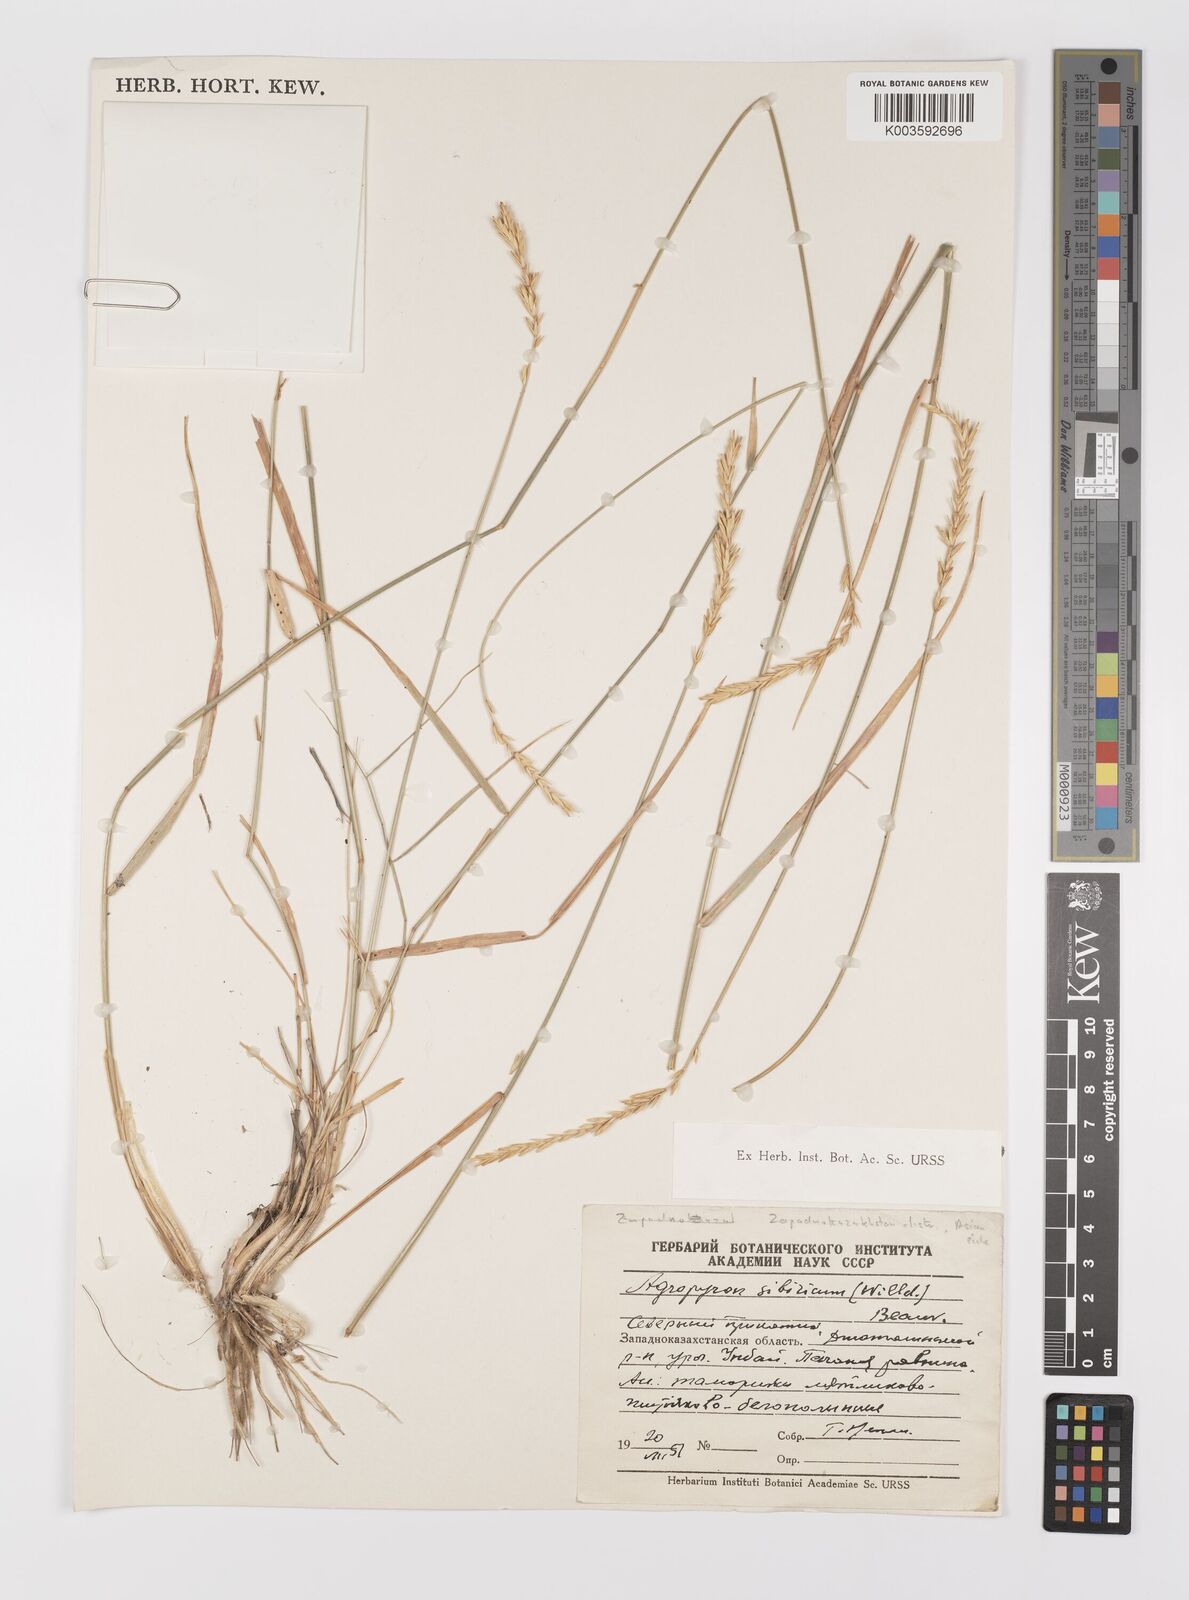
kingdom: Plantae
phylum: Tracheophyta
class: Liliopsida
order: Poales
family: Poaceae
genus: Agropyron
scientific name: Agropyron fragile
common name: Siberian wheatgrass
